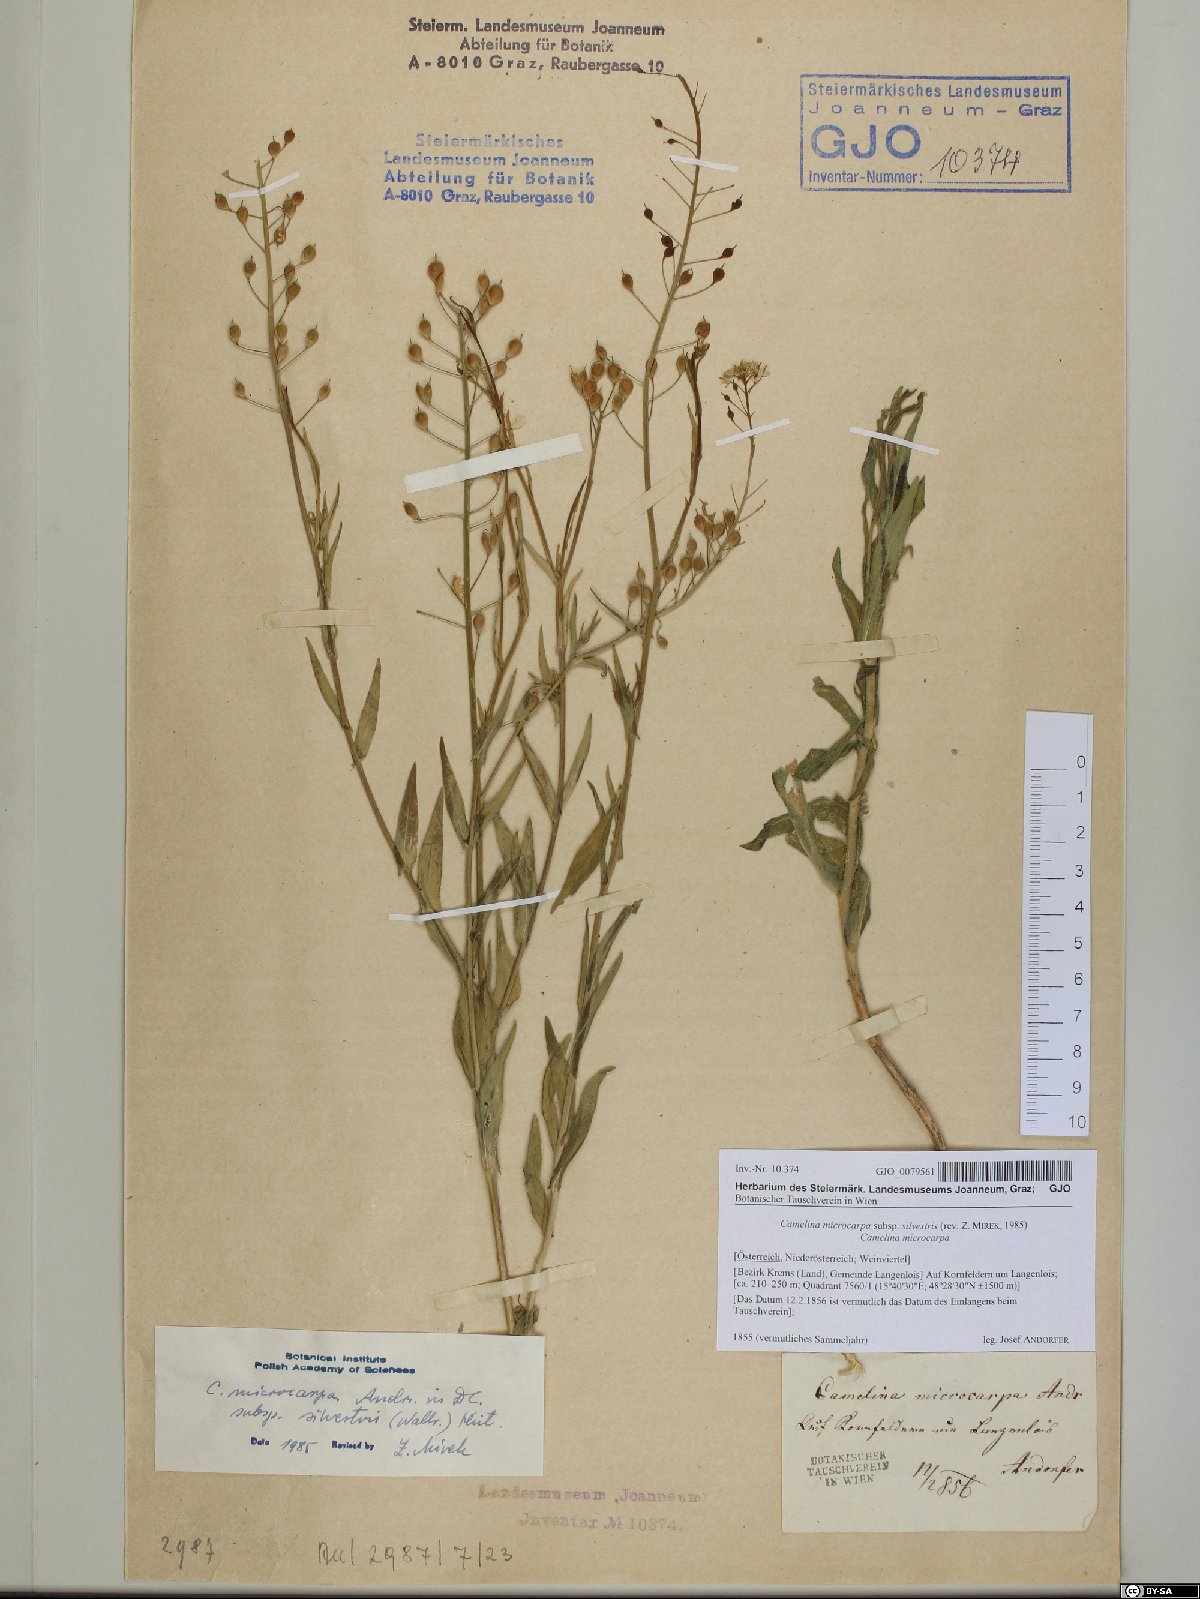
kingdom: Plantae
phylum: Tracheophyta
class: Magnoliopsida
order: Brassicales
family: Brassicaceae
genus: Camelina
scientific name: Camelina microcarpa
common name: Lesser gold-of-pleasure
